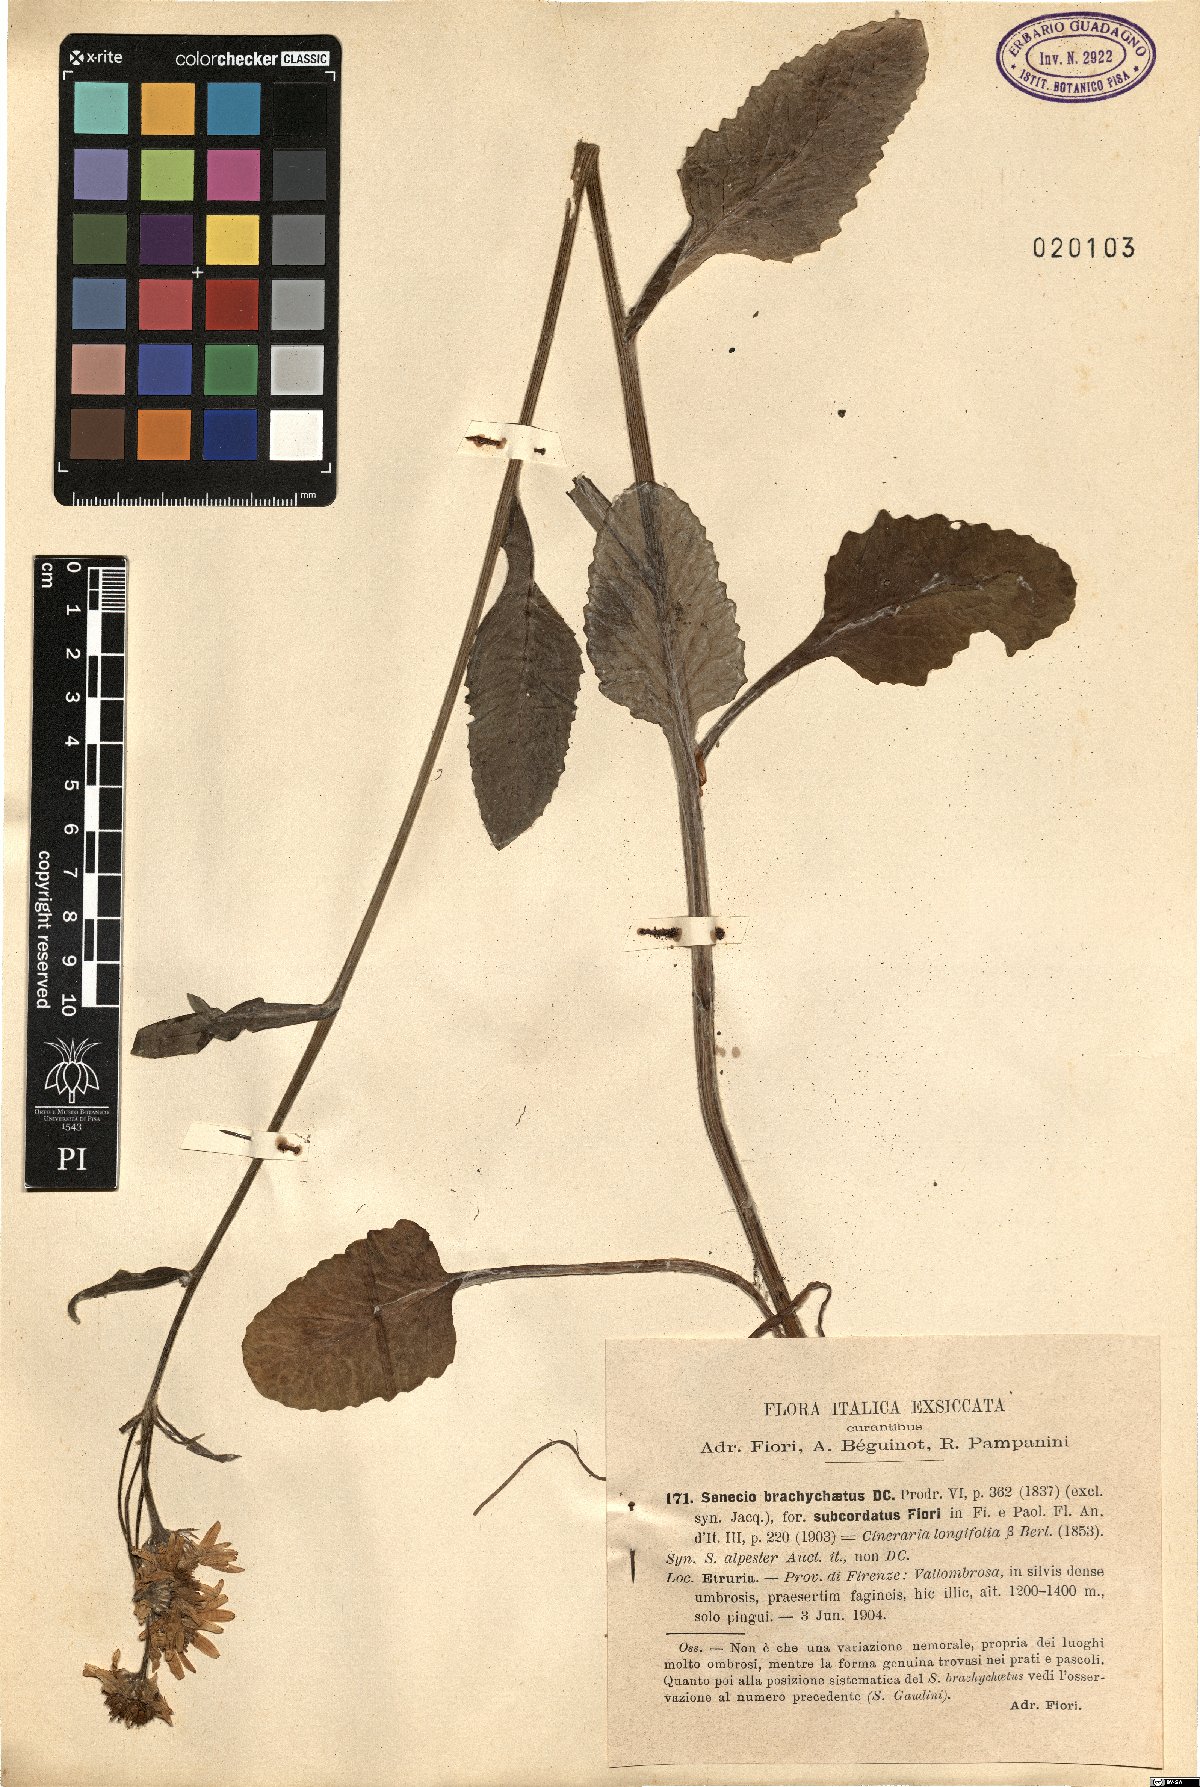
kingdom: Plantae
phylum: Tracheophyta
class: Magnoliopsida
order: Asterales
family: Asteraceae
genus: Tephroseris
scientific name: Tephroseris helenitis
